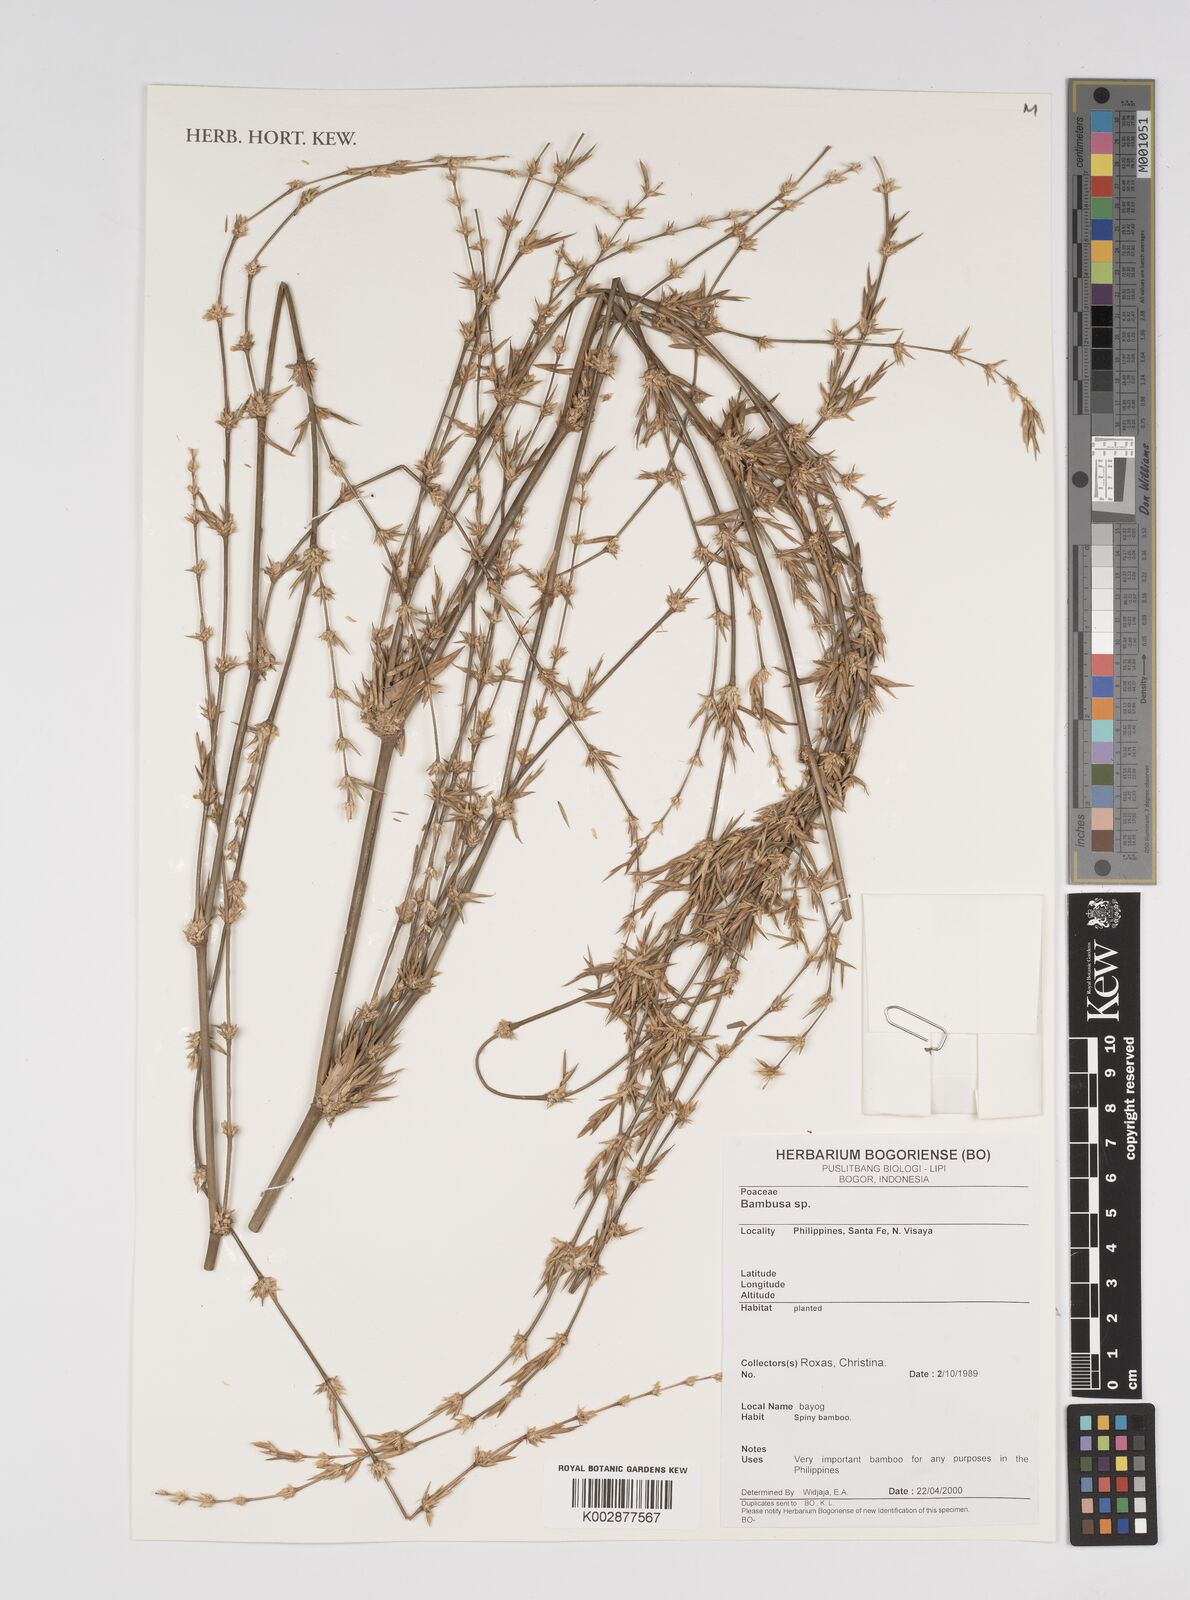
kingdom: Plantae
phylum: Tracheophyta
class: Liliopsida
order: Poales
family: Poaceae
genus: Bambusa
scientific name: Bambusa
